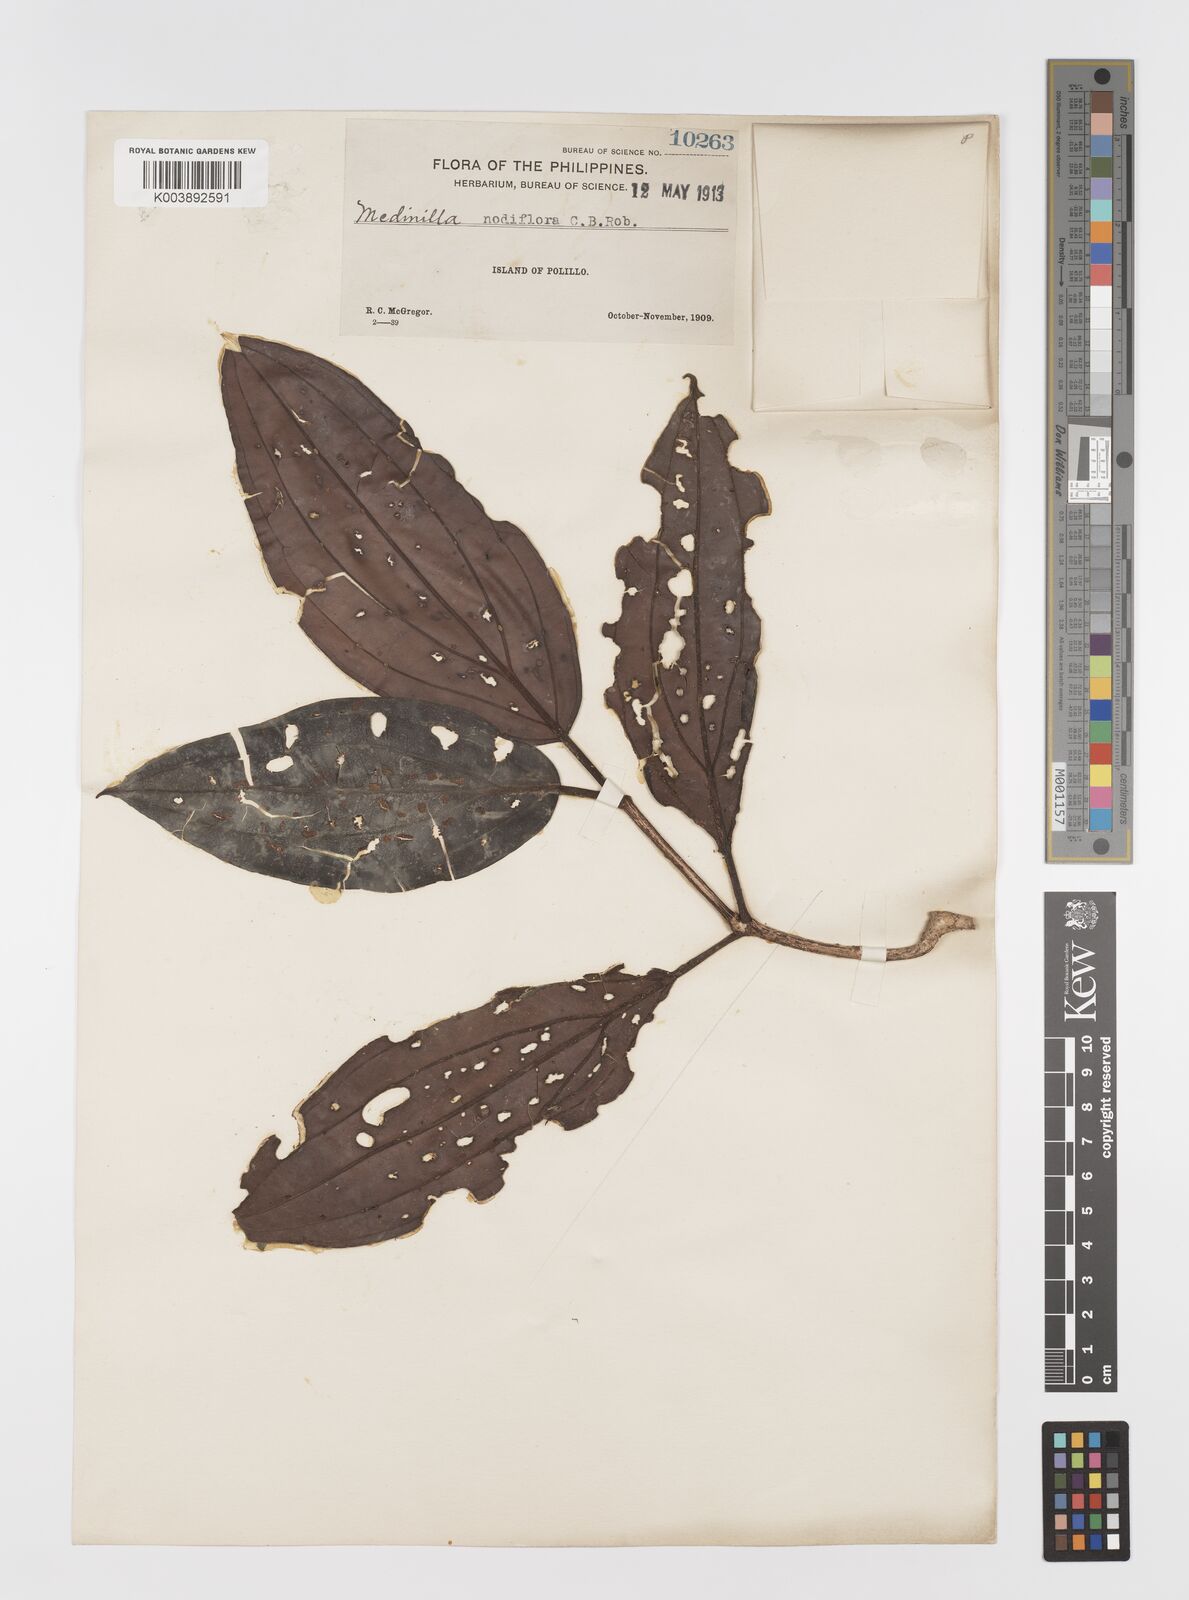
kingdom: Plantae
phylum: Tracheophyta
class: Magnoliopsida
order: Myrtales
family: Melastomataceae
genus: Medinilla
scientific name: Medinilla polillensis
